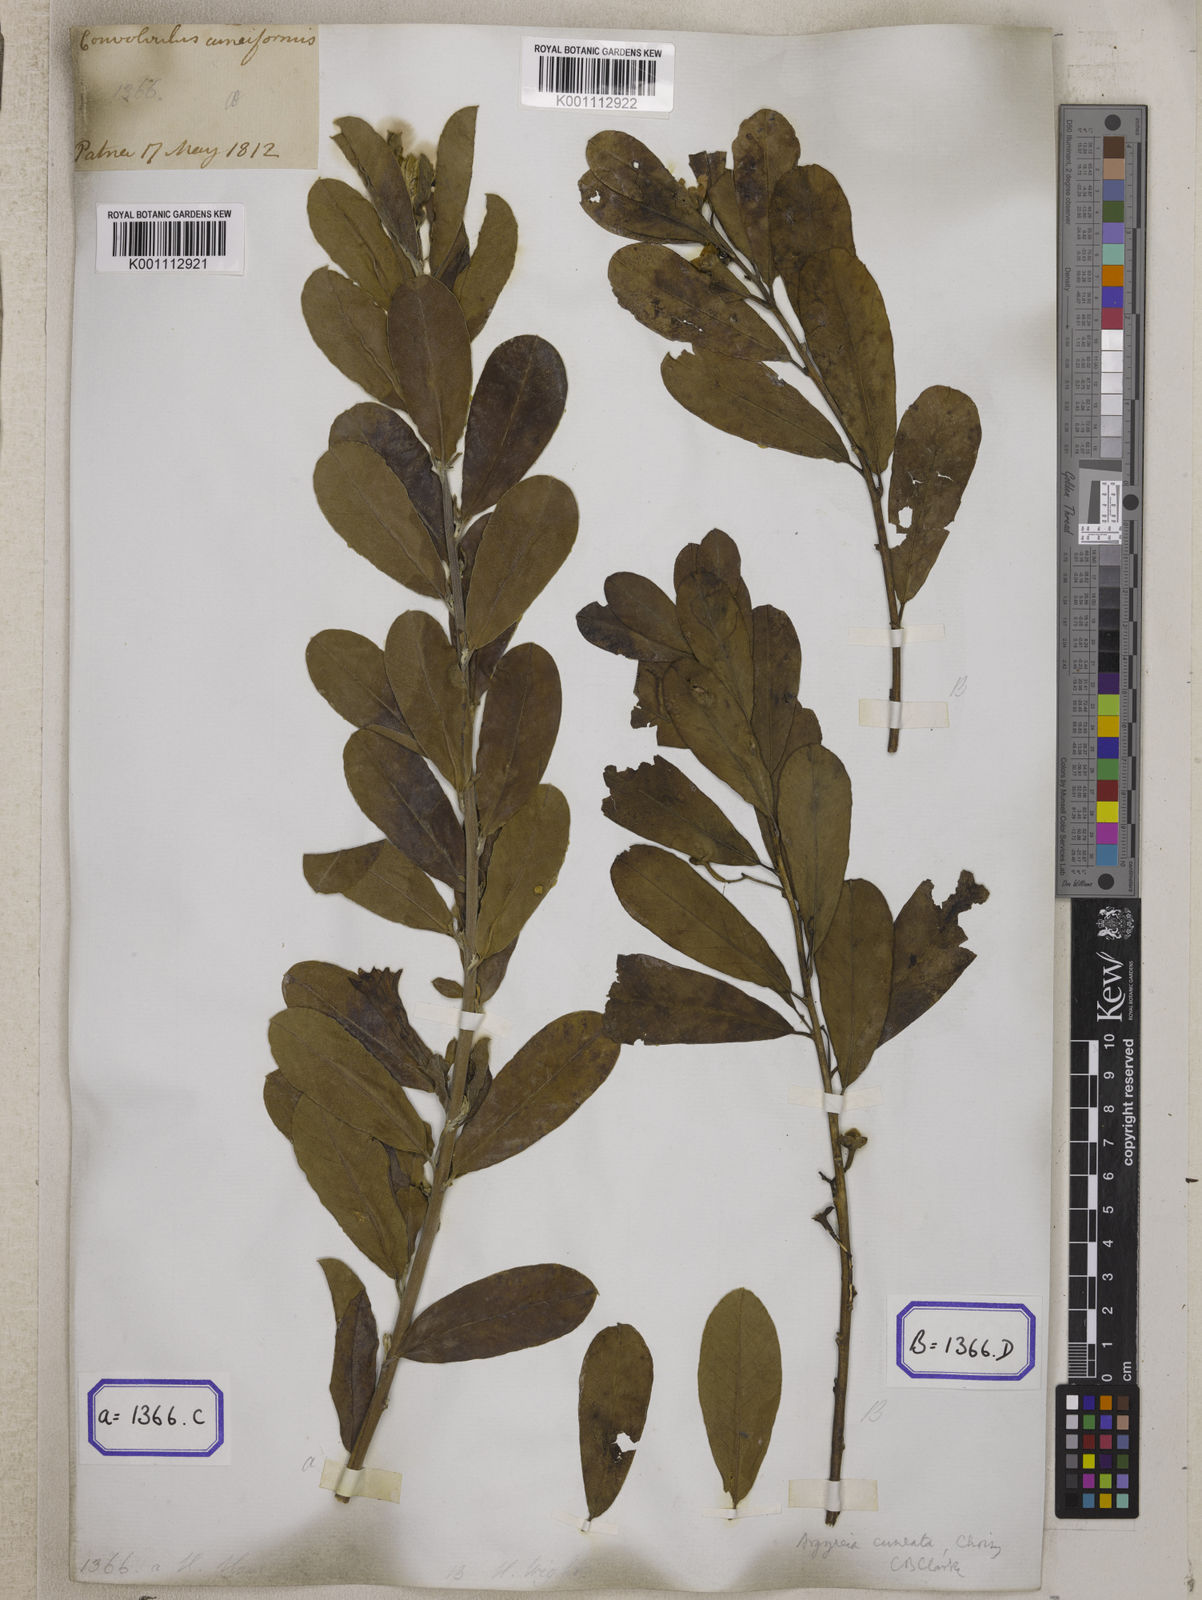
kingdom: Plantae
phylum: Tracheophyta
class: Magnoliopsida
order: Solanales
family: Convolvulaceae
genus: Convolvulus
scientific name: Convolvulus
